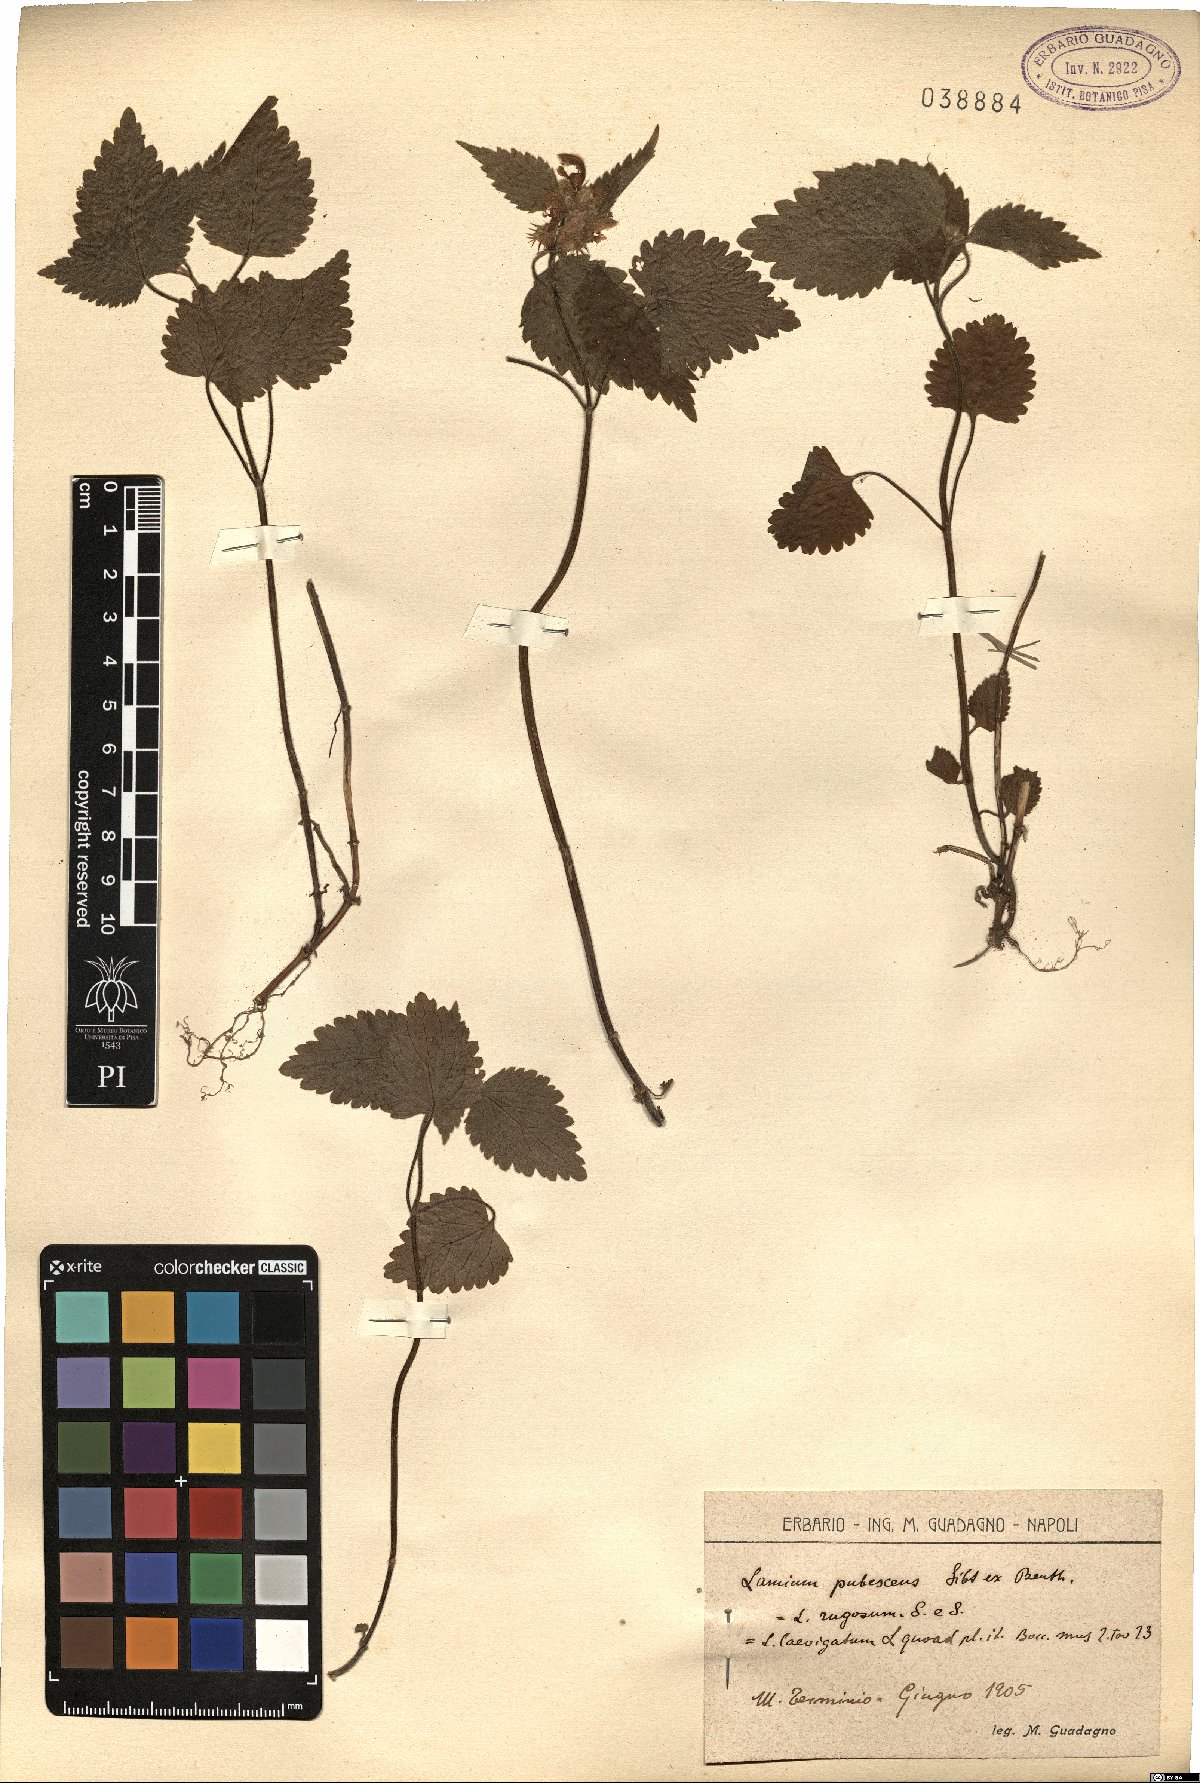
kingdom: Plantae
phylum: Tracheophyta
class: Magnoliopsida
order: Lamiales
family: Lamiaceae
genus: Lamium
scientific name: Lamium flexuosum
